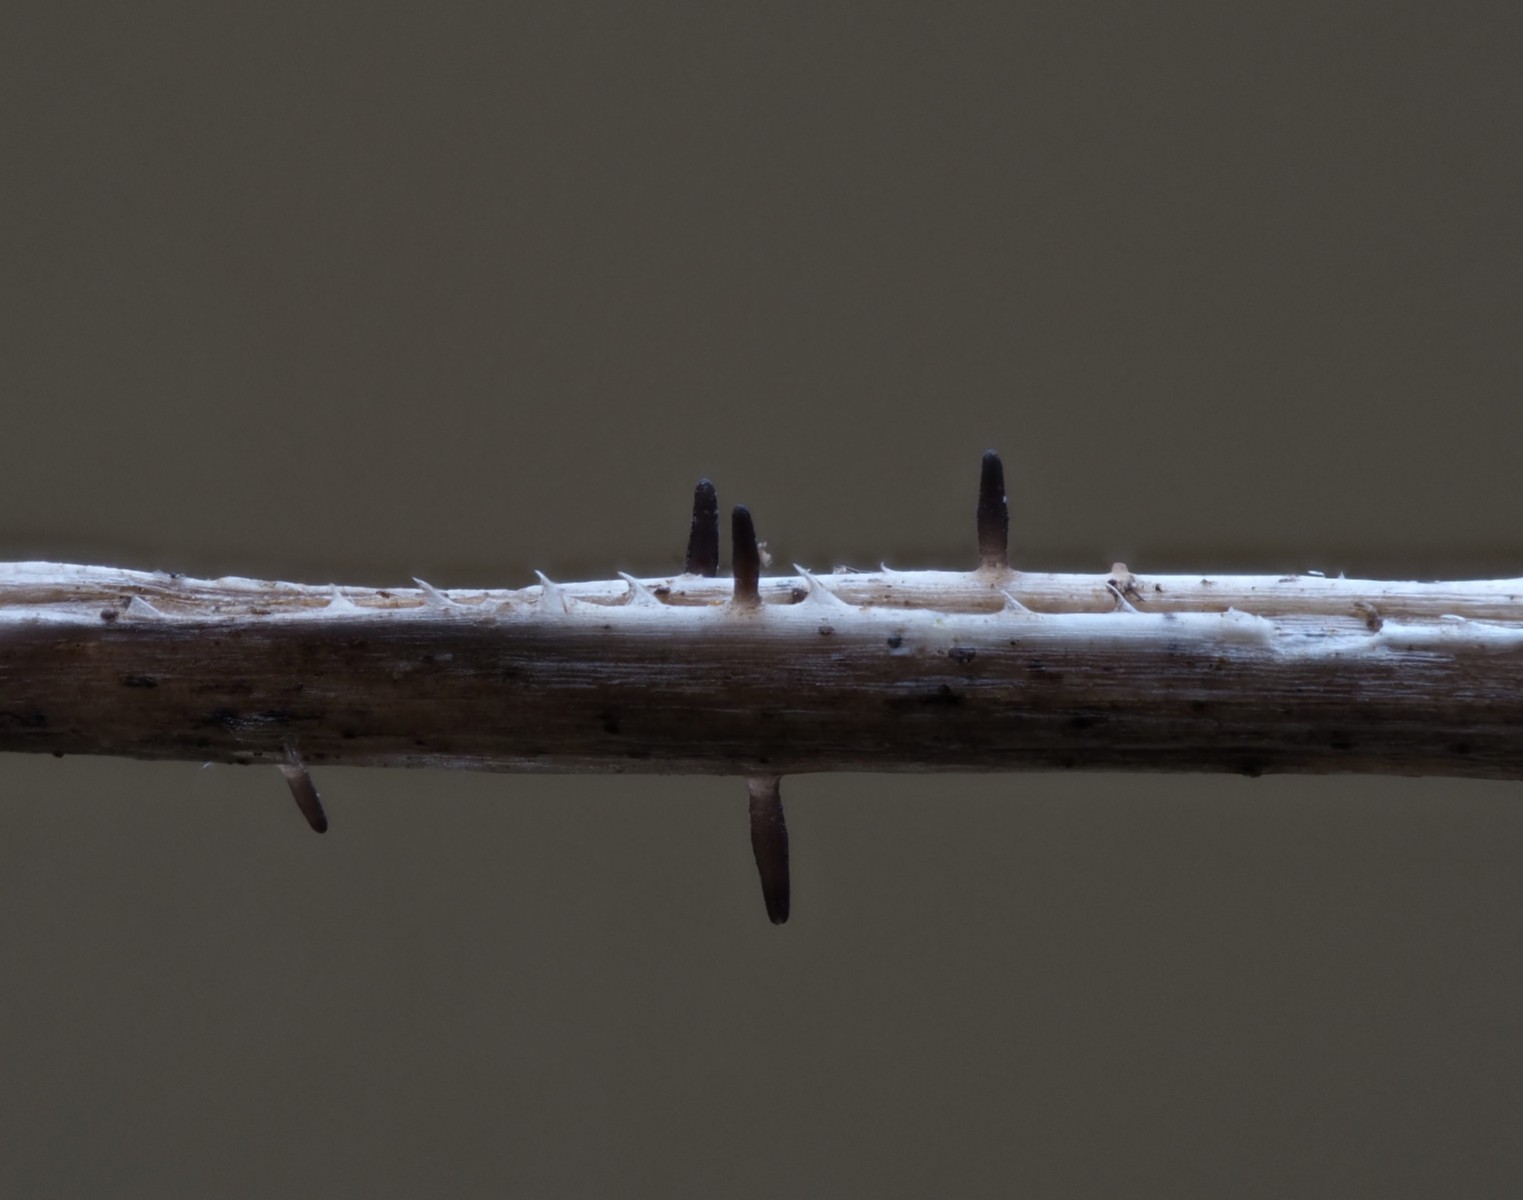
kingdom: Fungi
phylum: Ascomycota
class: Dothideomycetes
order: Acrospermales
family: Acrospermaceae
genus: Acrospermum
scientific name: Acrospermum pallidulum
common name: snerre-stængeltunge
